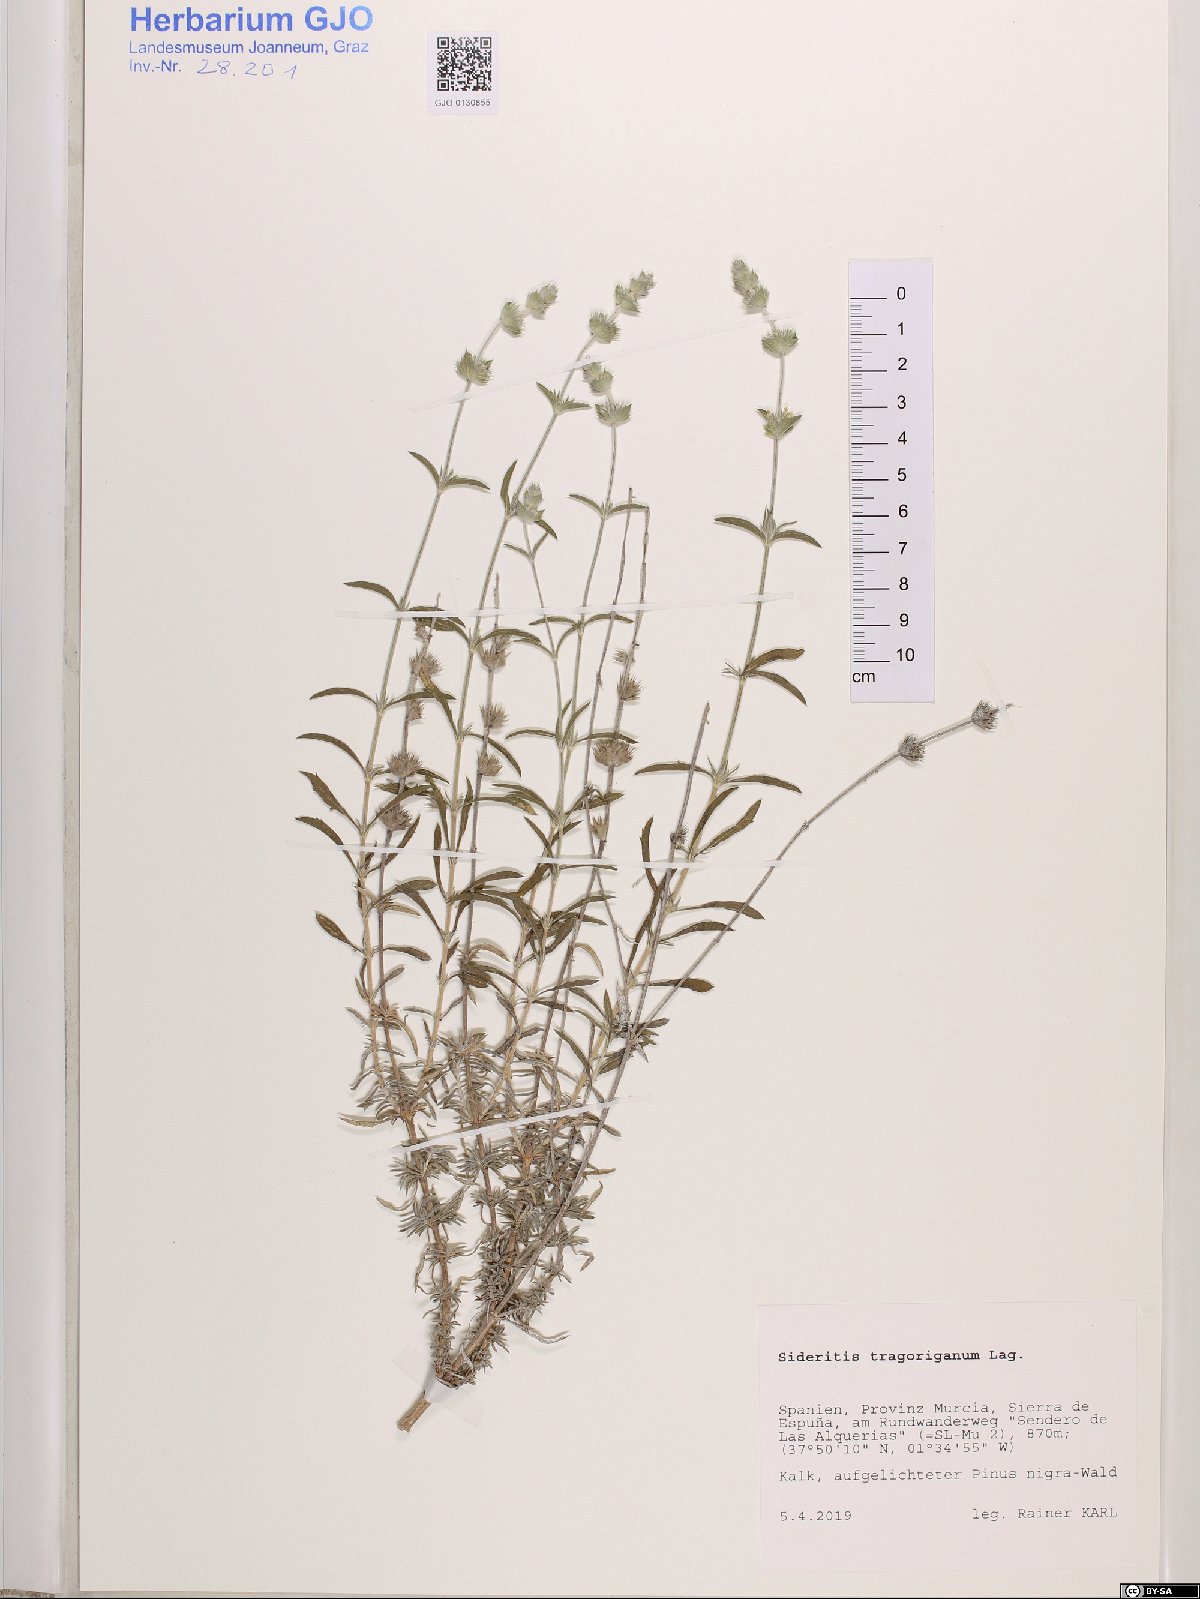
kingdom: Plantae
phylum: Tracheophyta
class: Magnoliopsida
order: Lamiales
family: Lamiaceae
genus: Sideritis
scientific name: Sideritis tragoriganum
